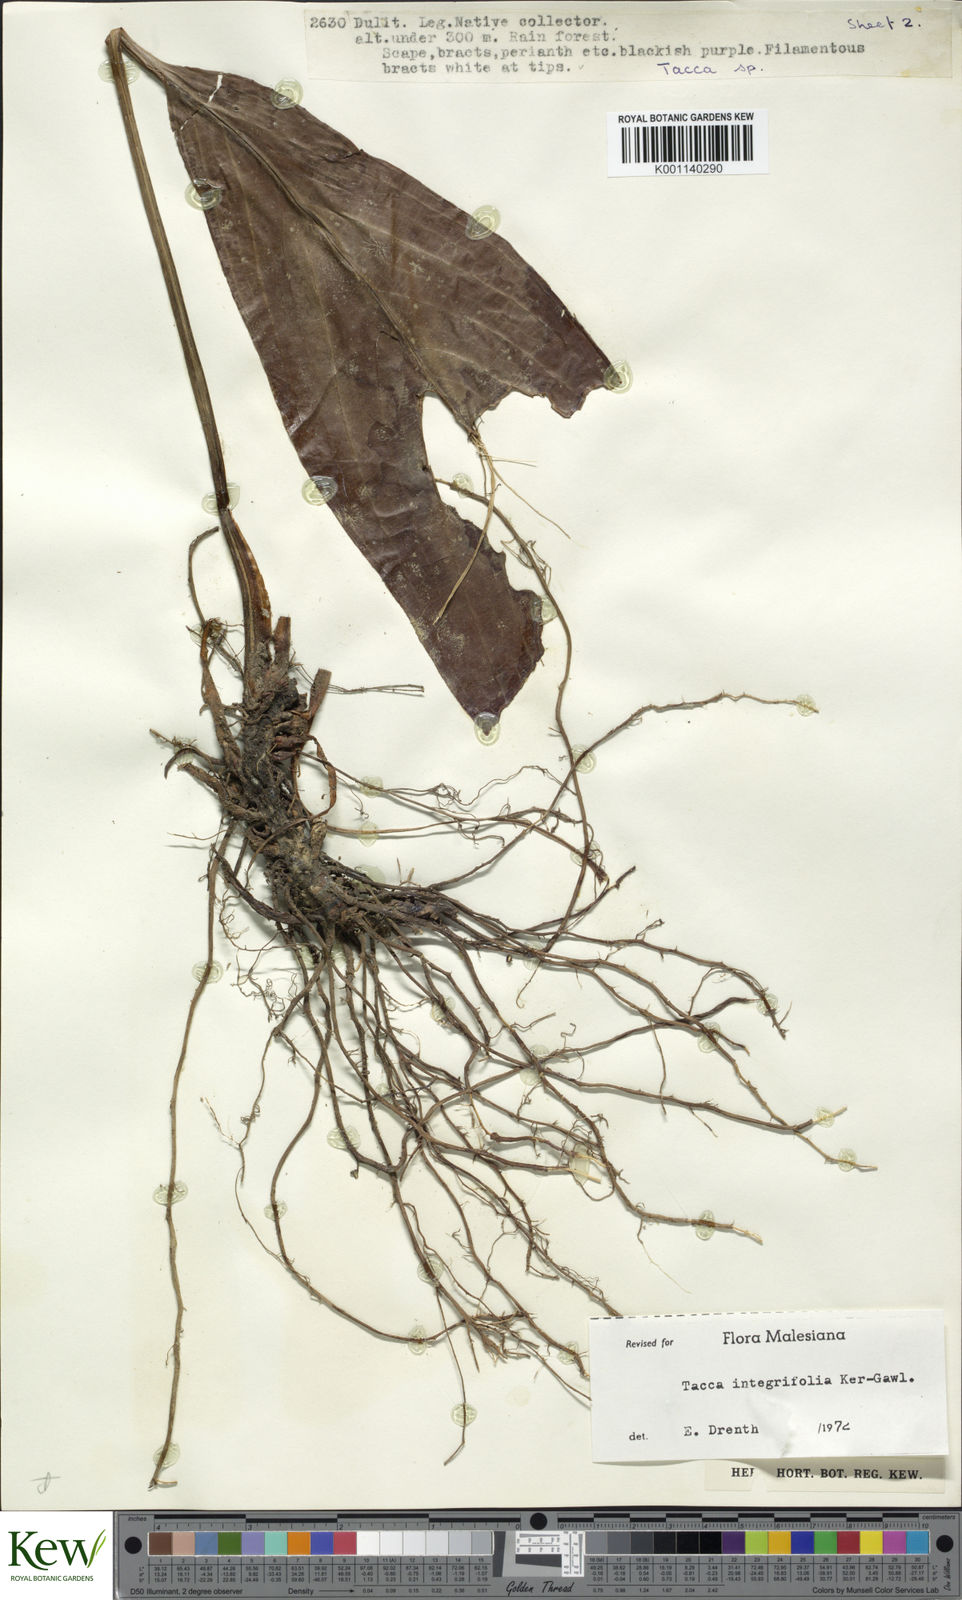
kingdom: Plantae
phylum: Tracheophyta
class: Liliopsida
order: Dioscoreales
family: Dioscoreaceae
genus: Tacca
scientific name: Tacca integrifolia
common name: Batplant
